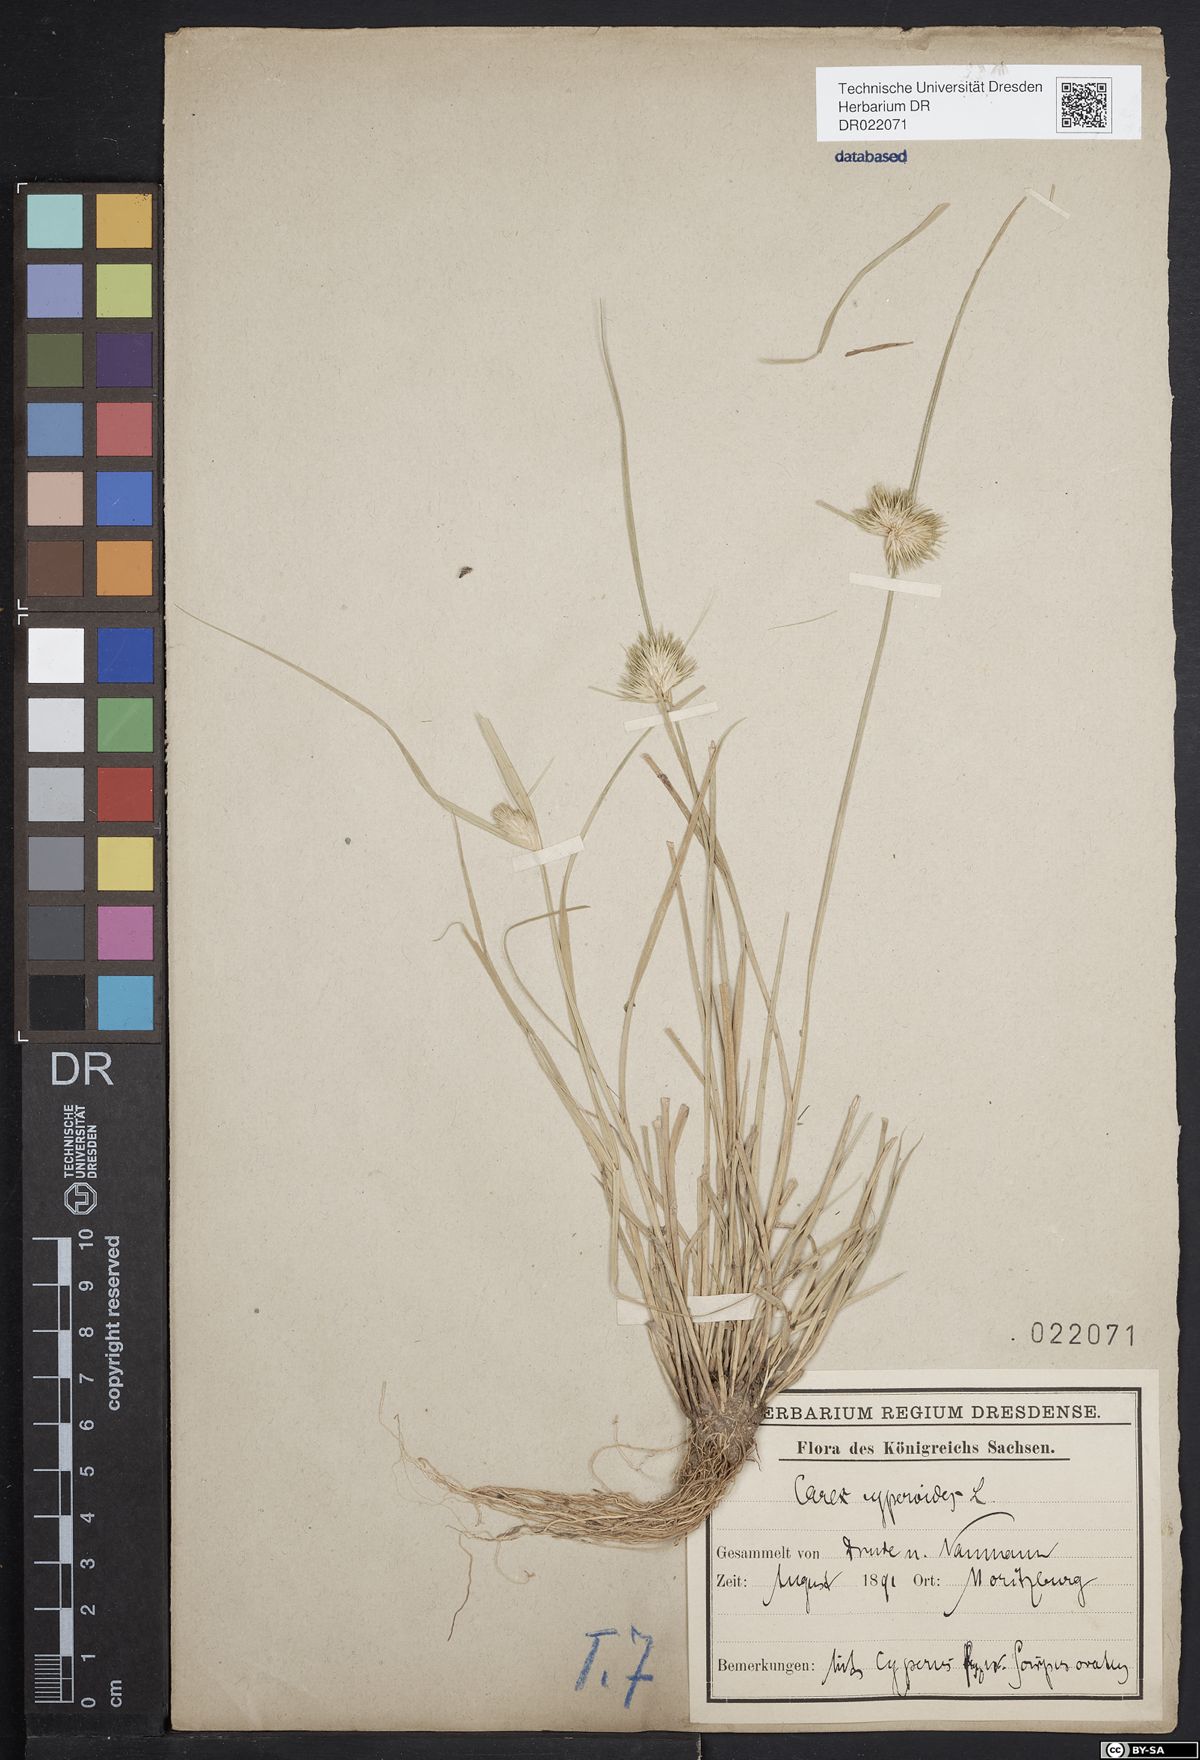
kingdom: Plantae
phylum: Tracheophyta
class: Liliopsida
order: Poales
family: Cyperaceae
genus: Carex
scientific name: Carex bohemica
